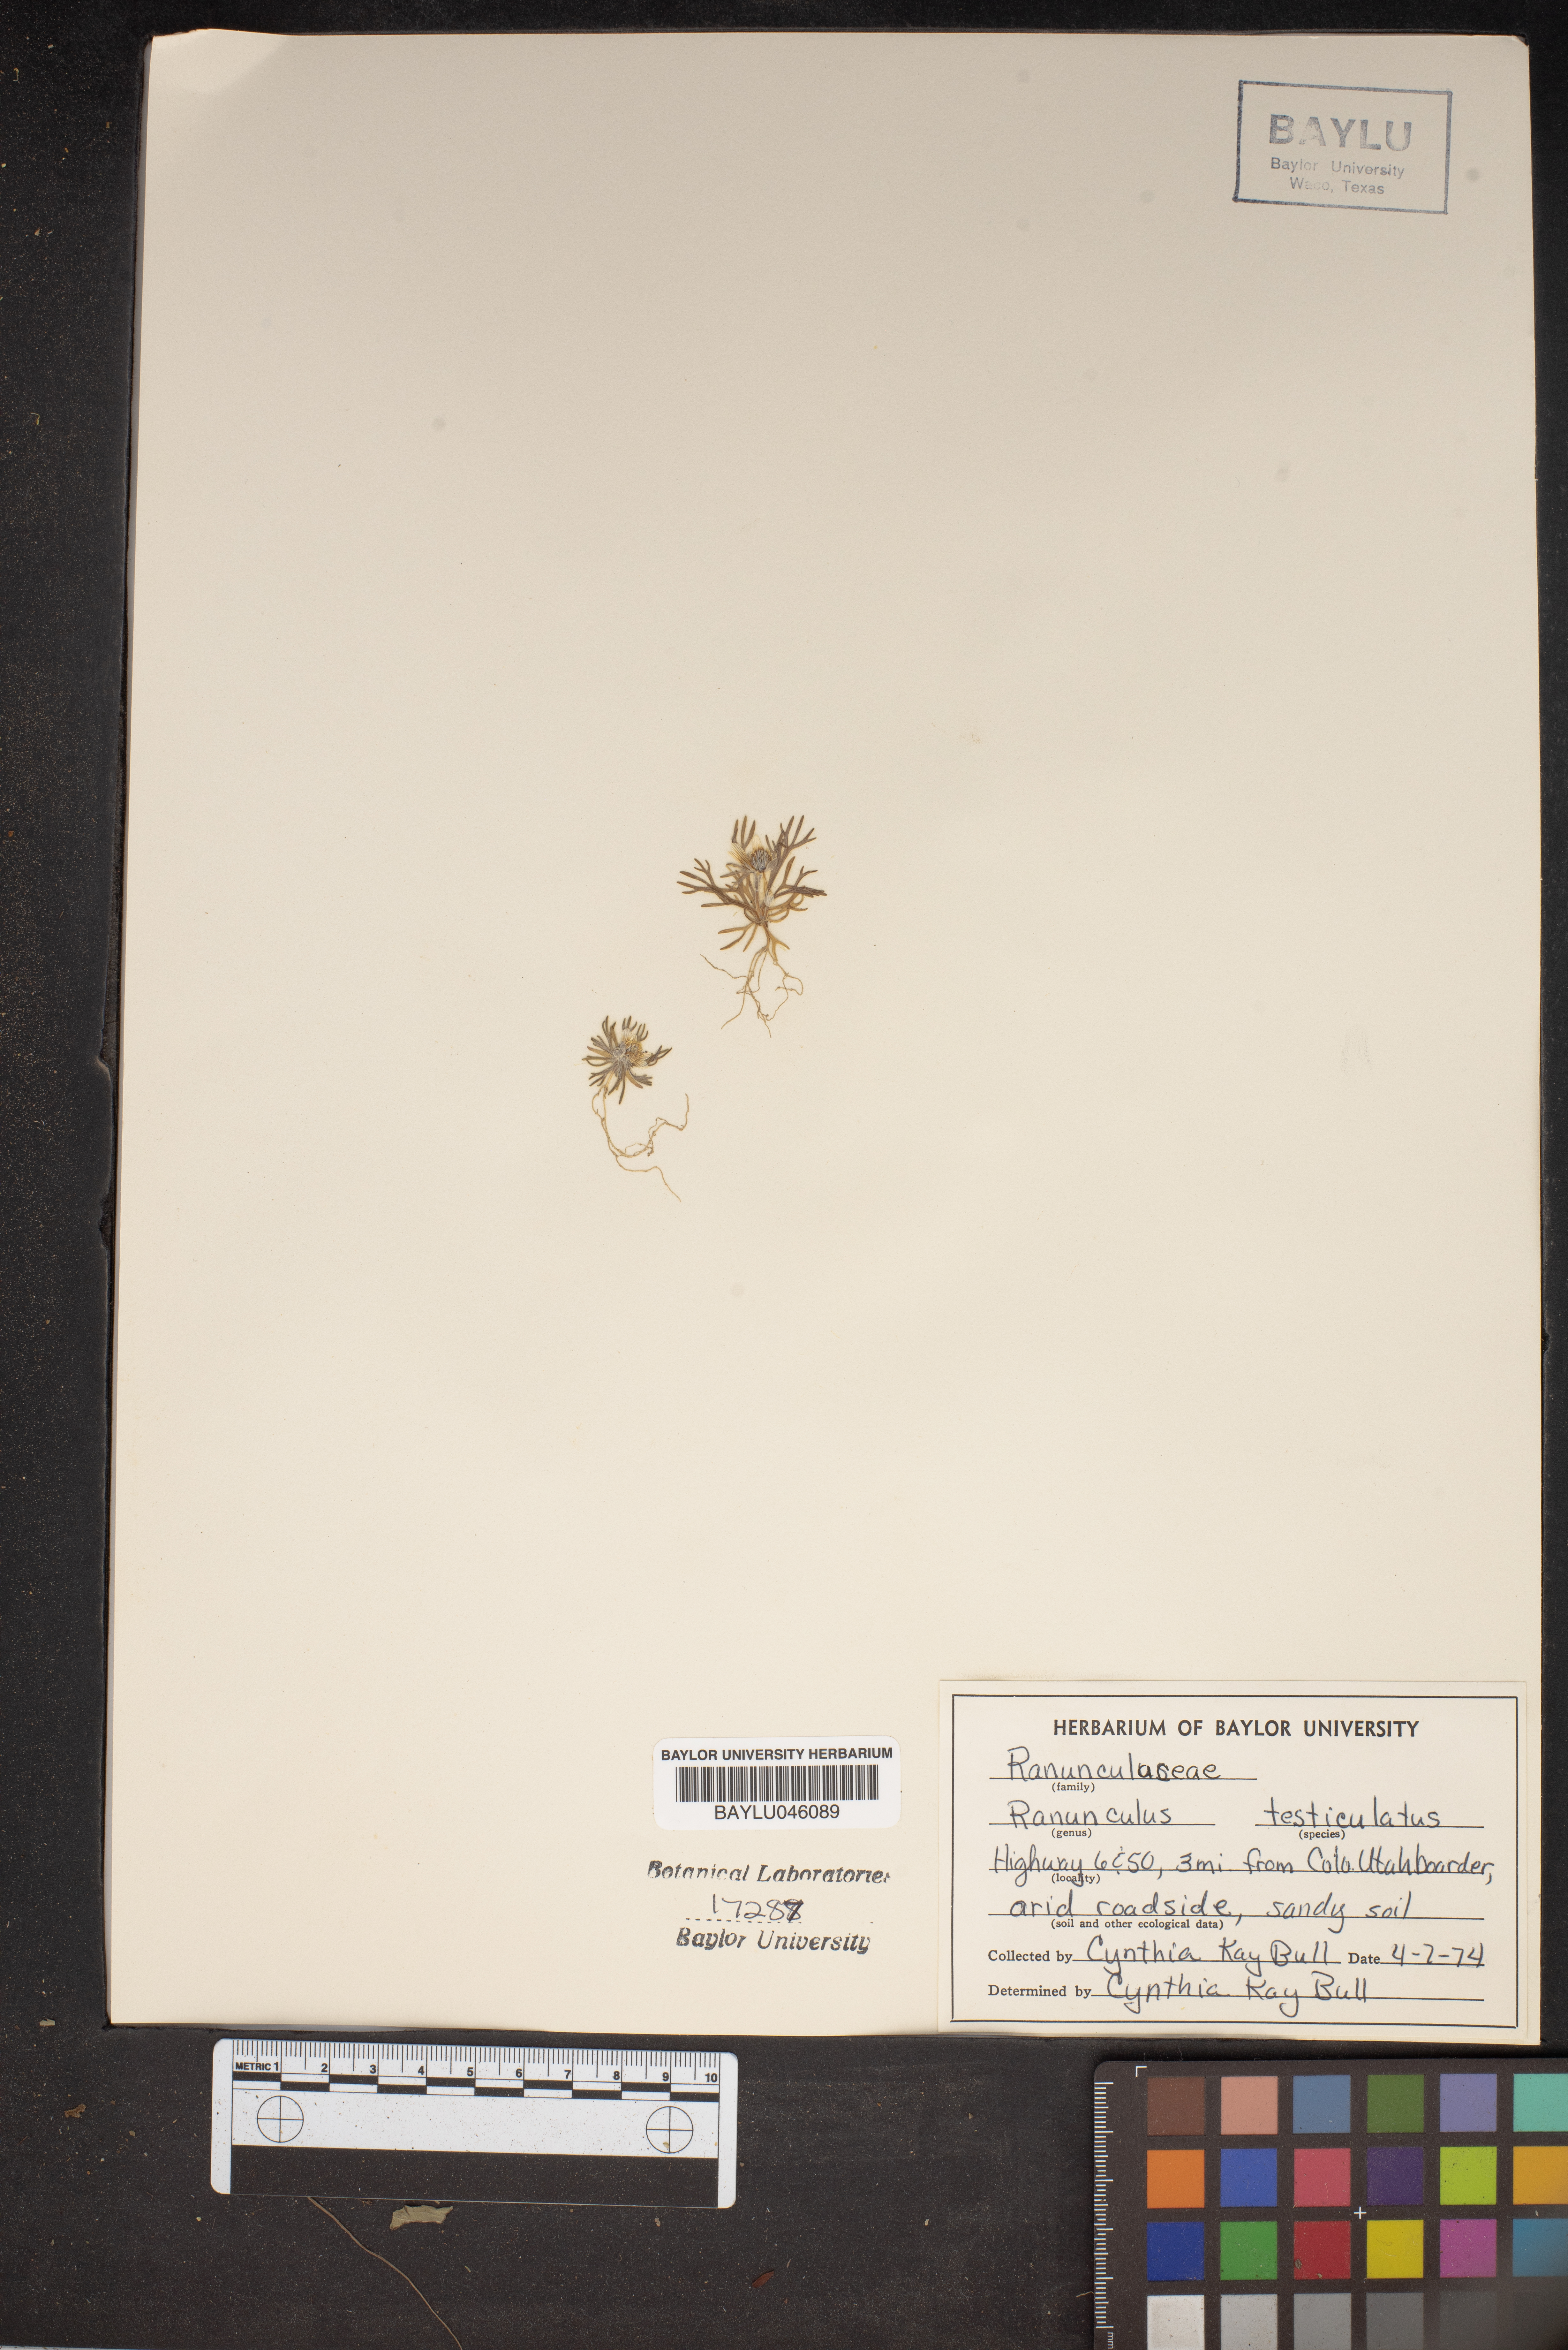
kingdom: Plantae
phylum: Tracheophyta
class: Magnoliopsida
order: Ranunculales
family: Ranunculaceae
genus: Ceratocephala
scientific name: Ceratocephala orthoceras
